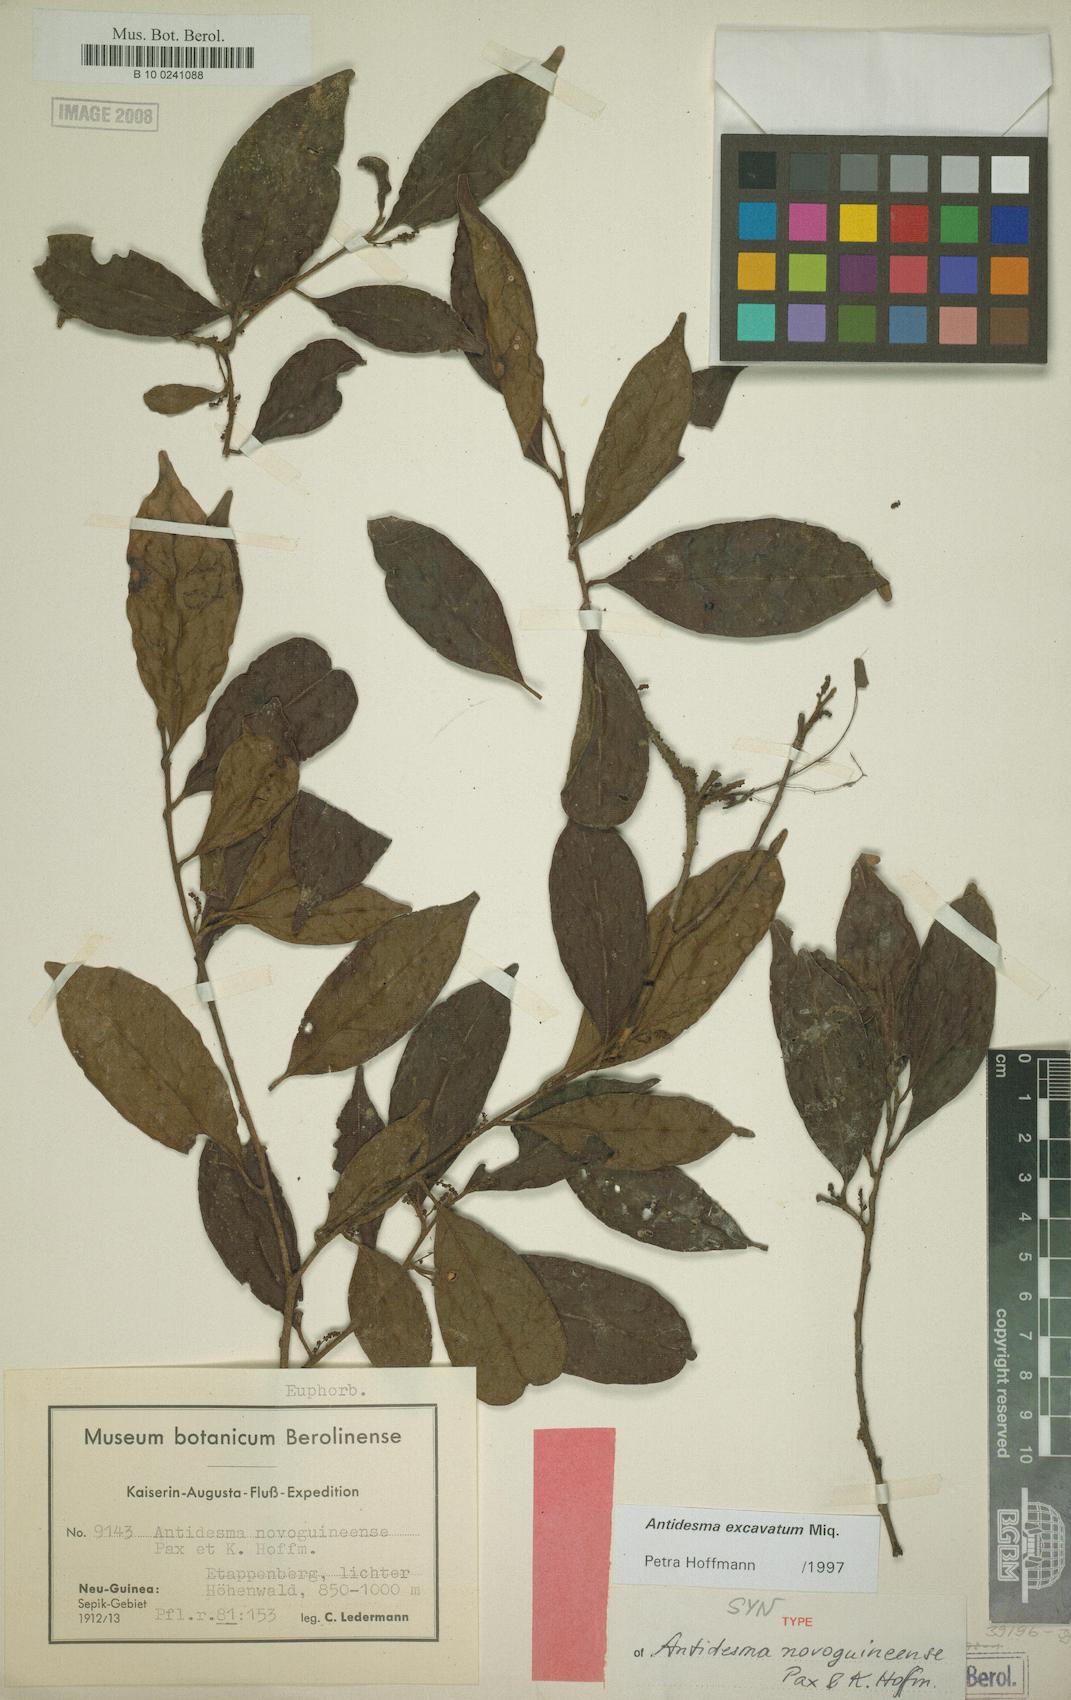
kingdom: Plantae
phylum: Tracheophyta
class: Magnoliopsida
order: Malpighiales
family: Phyllanthaceae
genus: Antidesma
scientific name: Antidesma excavatum
